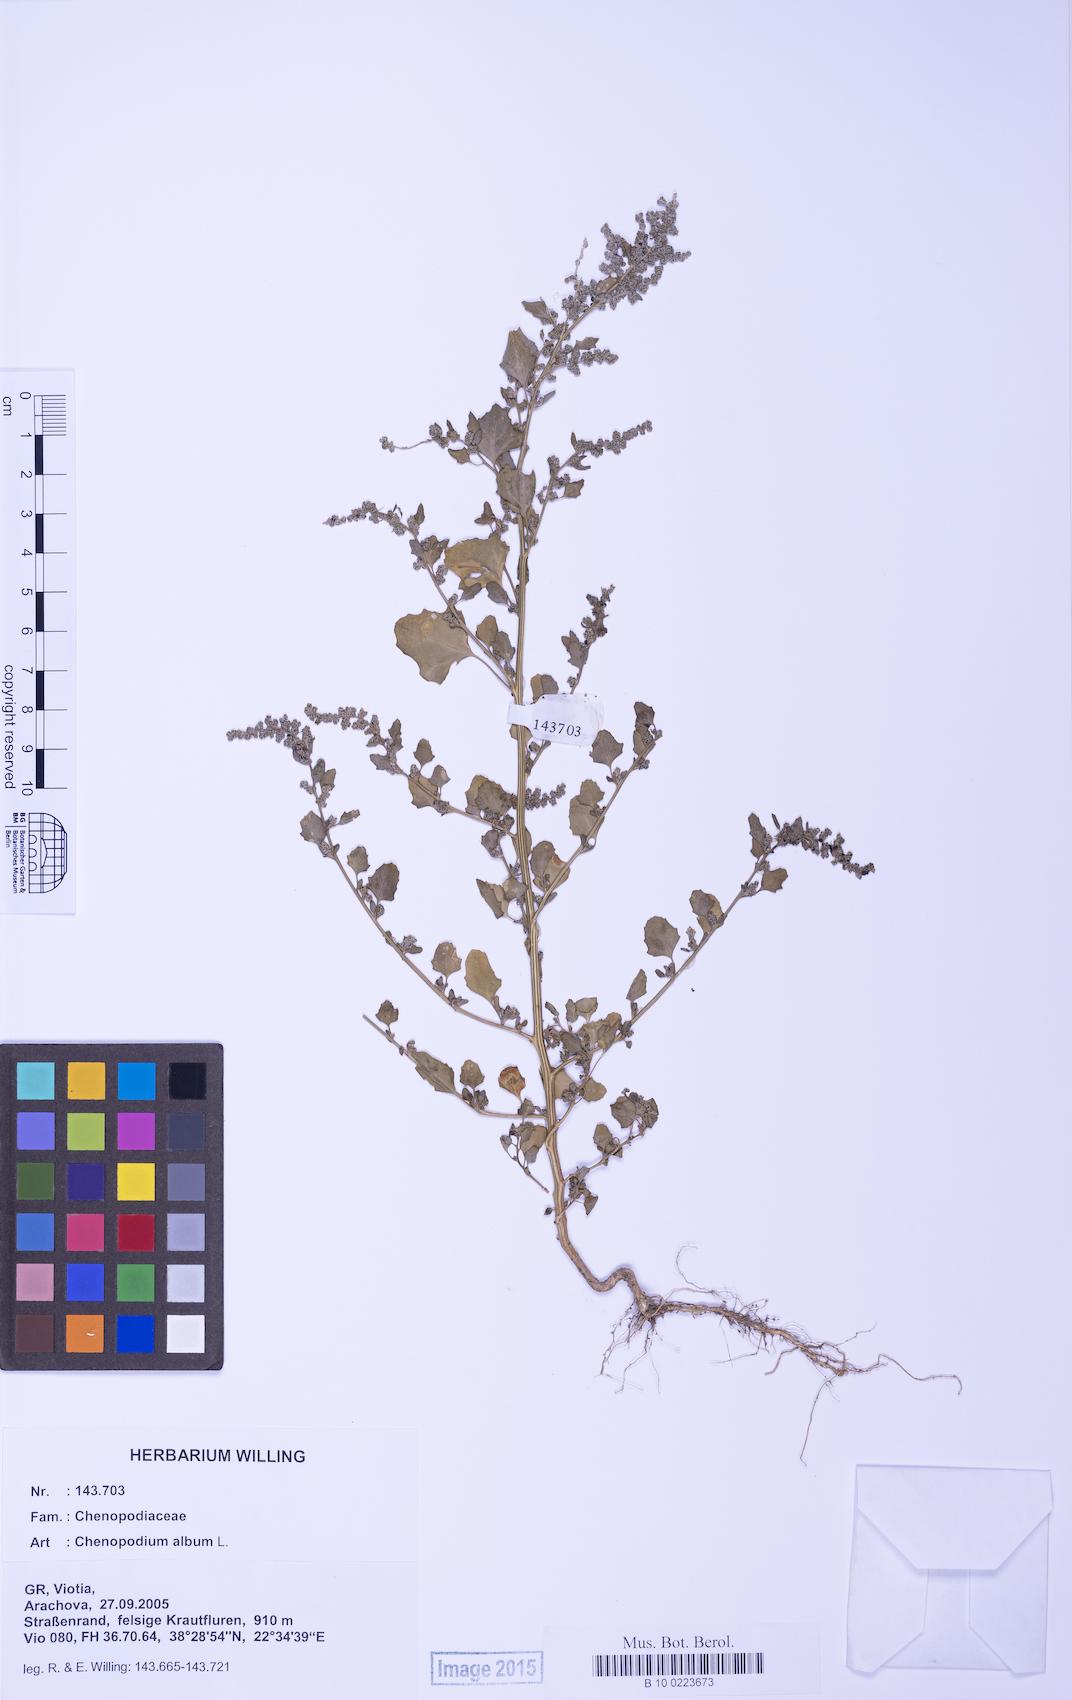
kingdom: Plantae
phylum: Tracheophyta
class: Magnoliopsida
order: Caryophyllales
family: Amaranthaceae
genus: Chenopodium
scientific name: Chenopodium album
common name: Fat-hen
